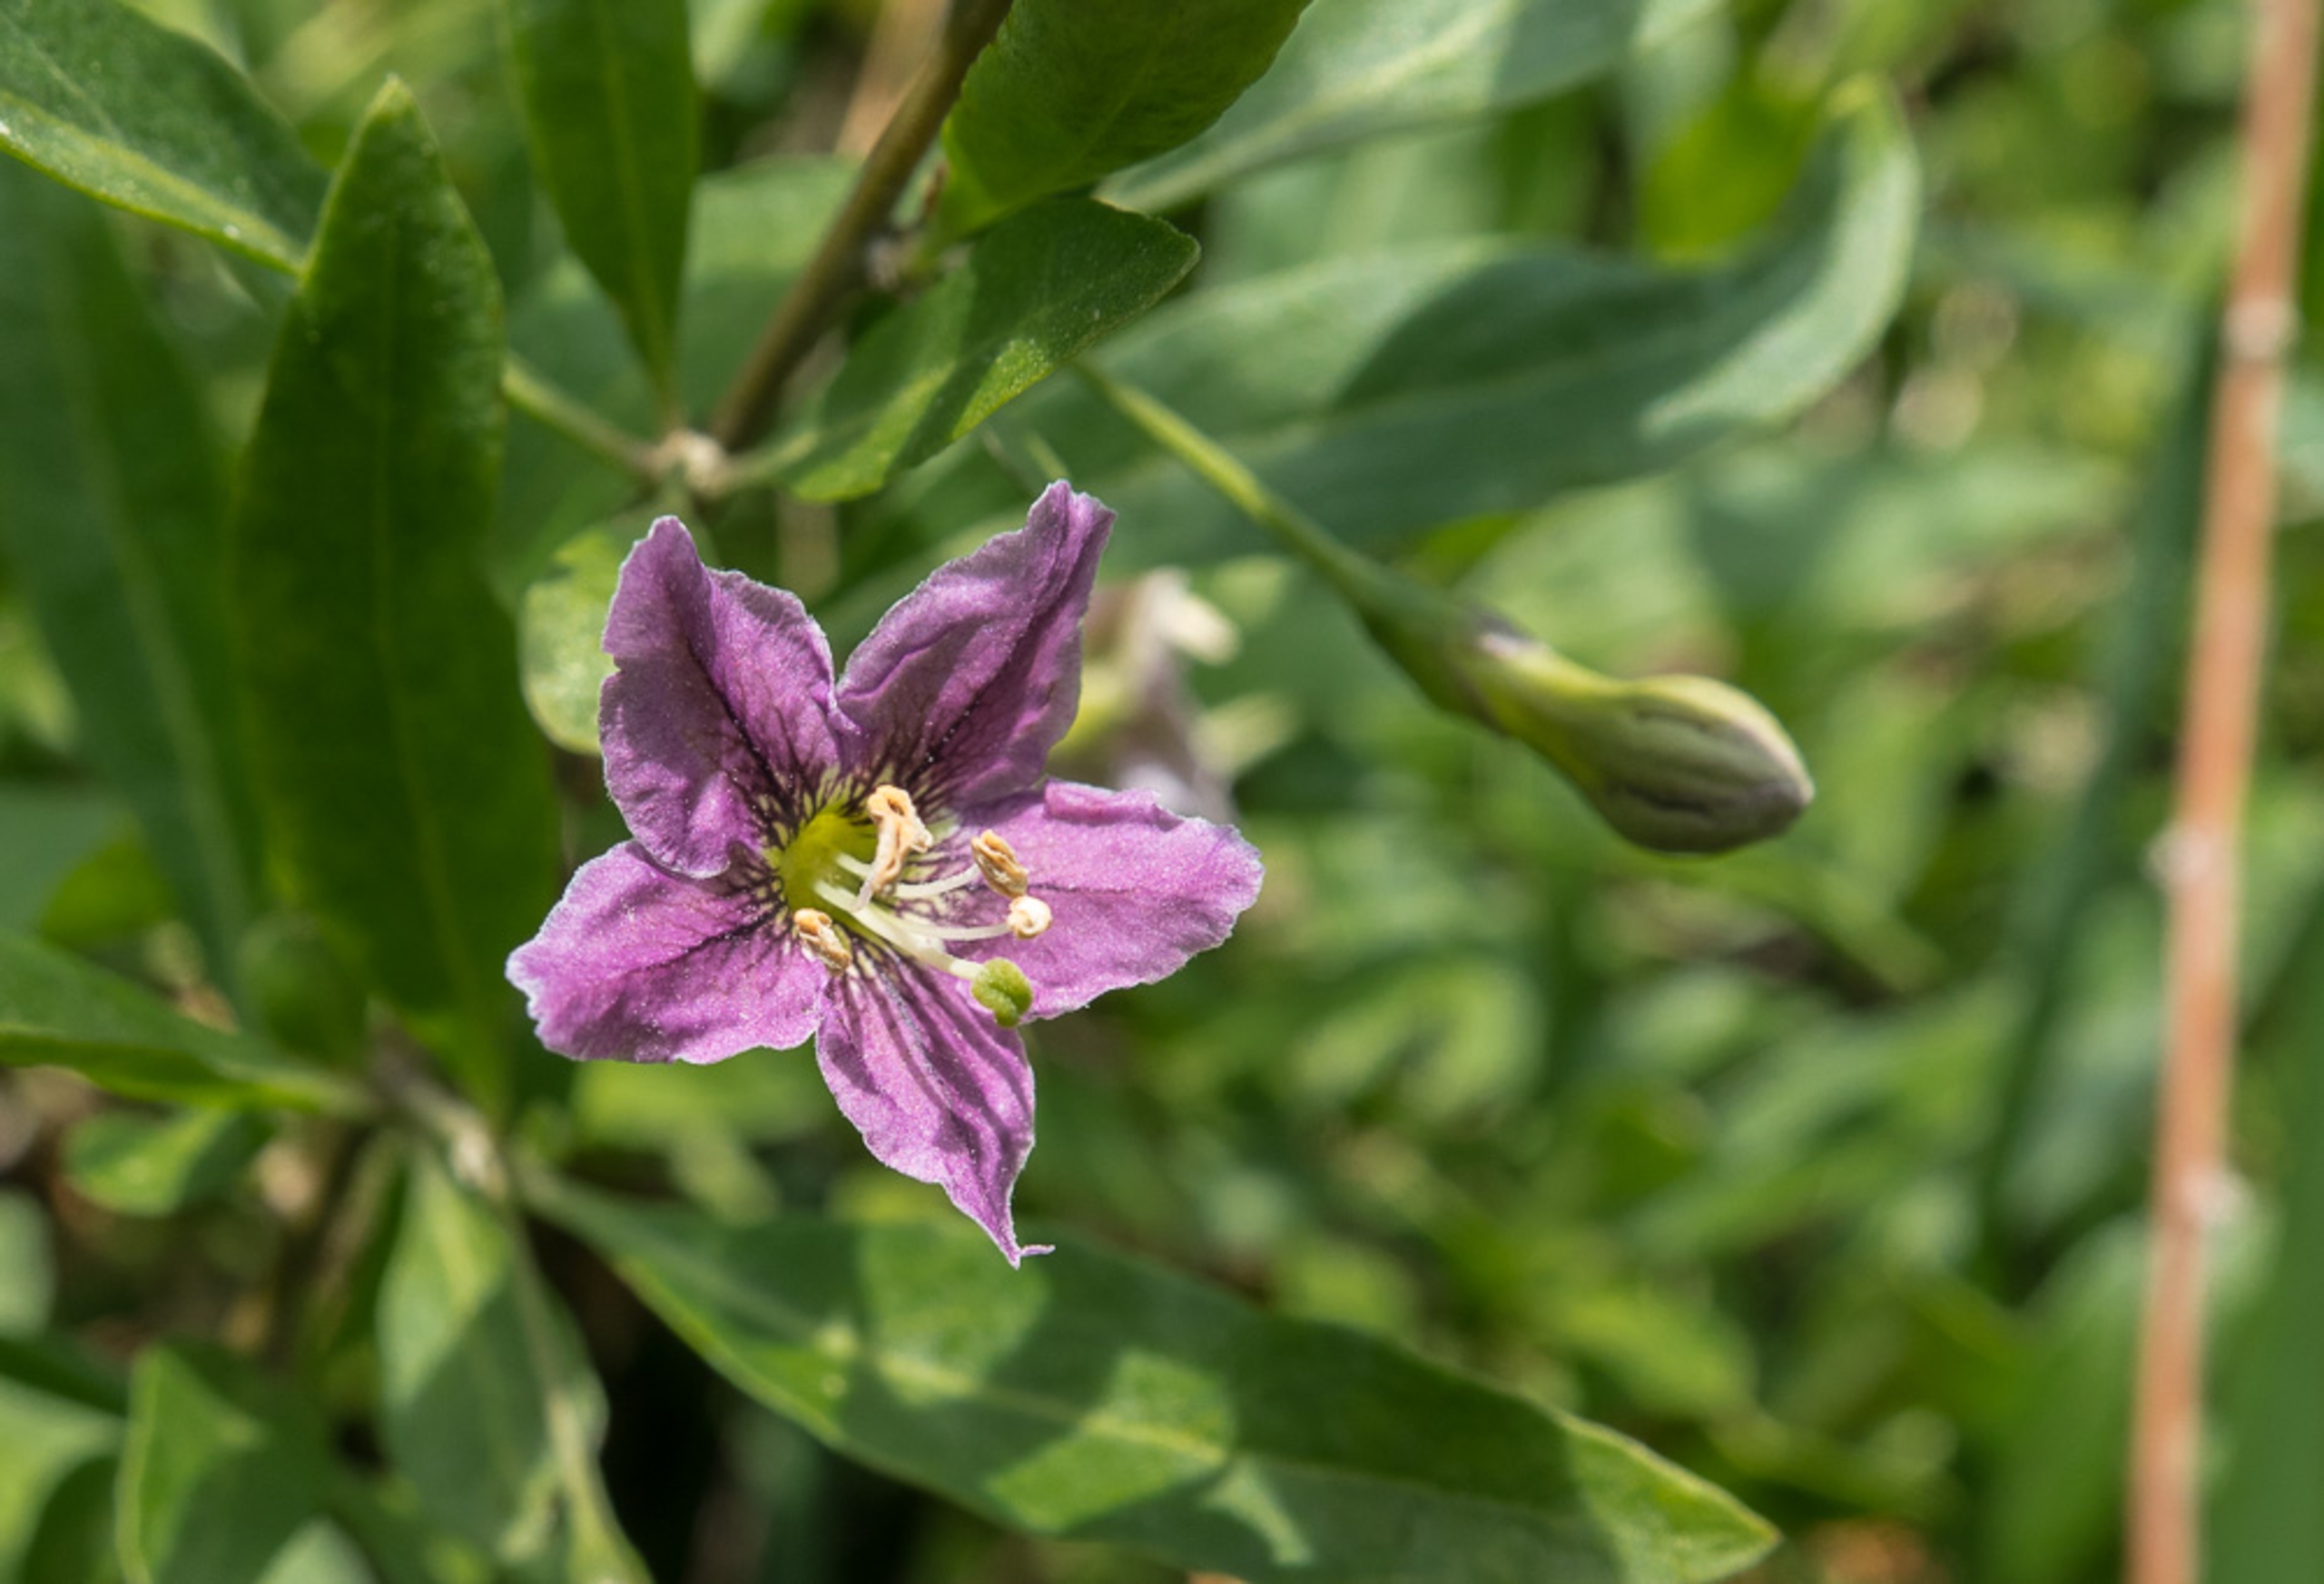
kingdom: Plantae
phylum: Tracheophyta
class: Magnoliopsida
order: Solanales
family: Solanaceae
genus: Lycium
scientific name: Lycium barbarum
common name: Bukketorn
